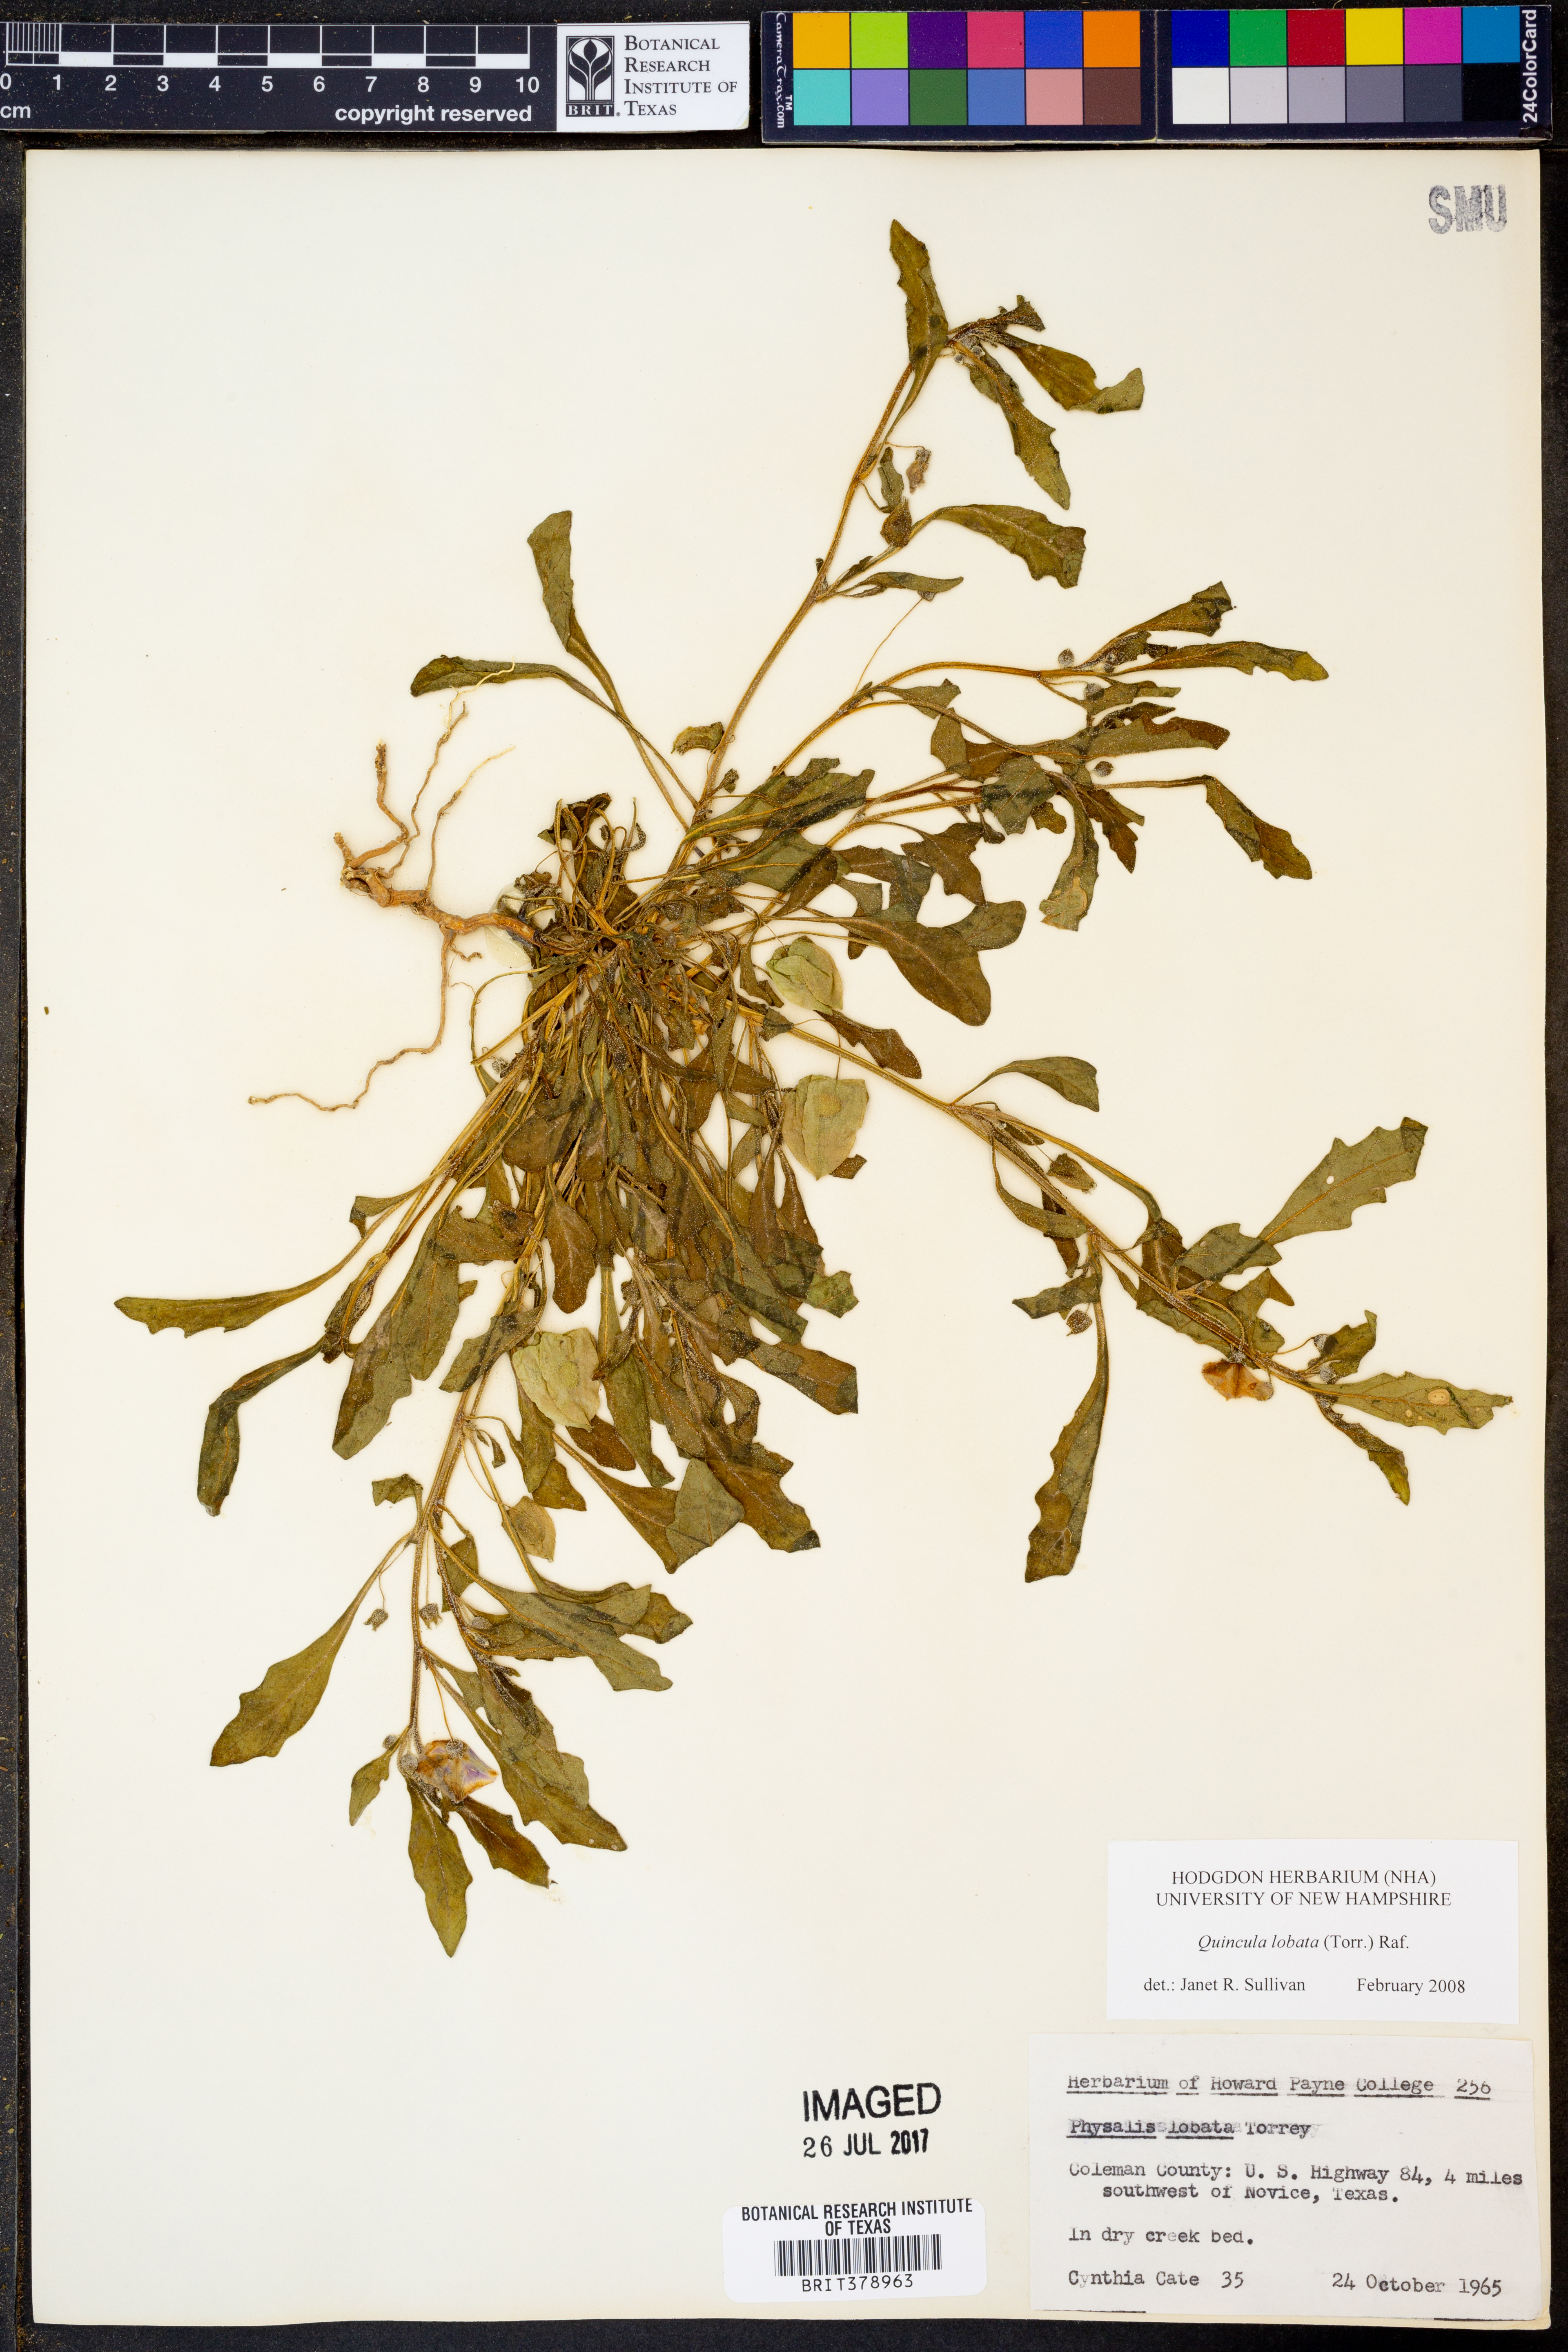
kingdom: Plantae
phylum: Tracheophyta
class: Magnoliopsida
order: Solanales
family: Solanaceae
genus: Quincula
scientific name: Quincula lobata
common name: Purple-ground-cherry
